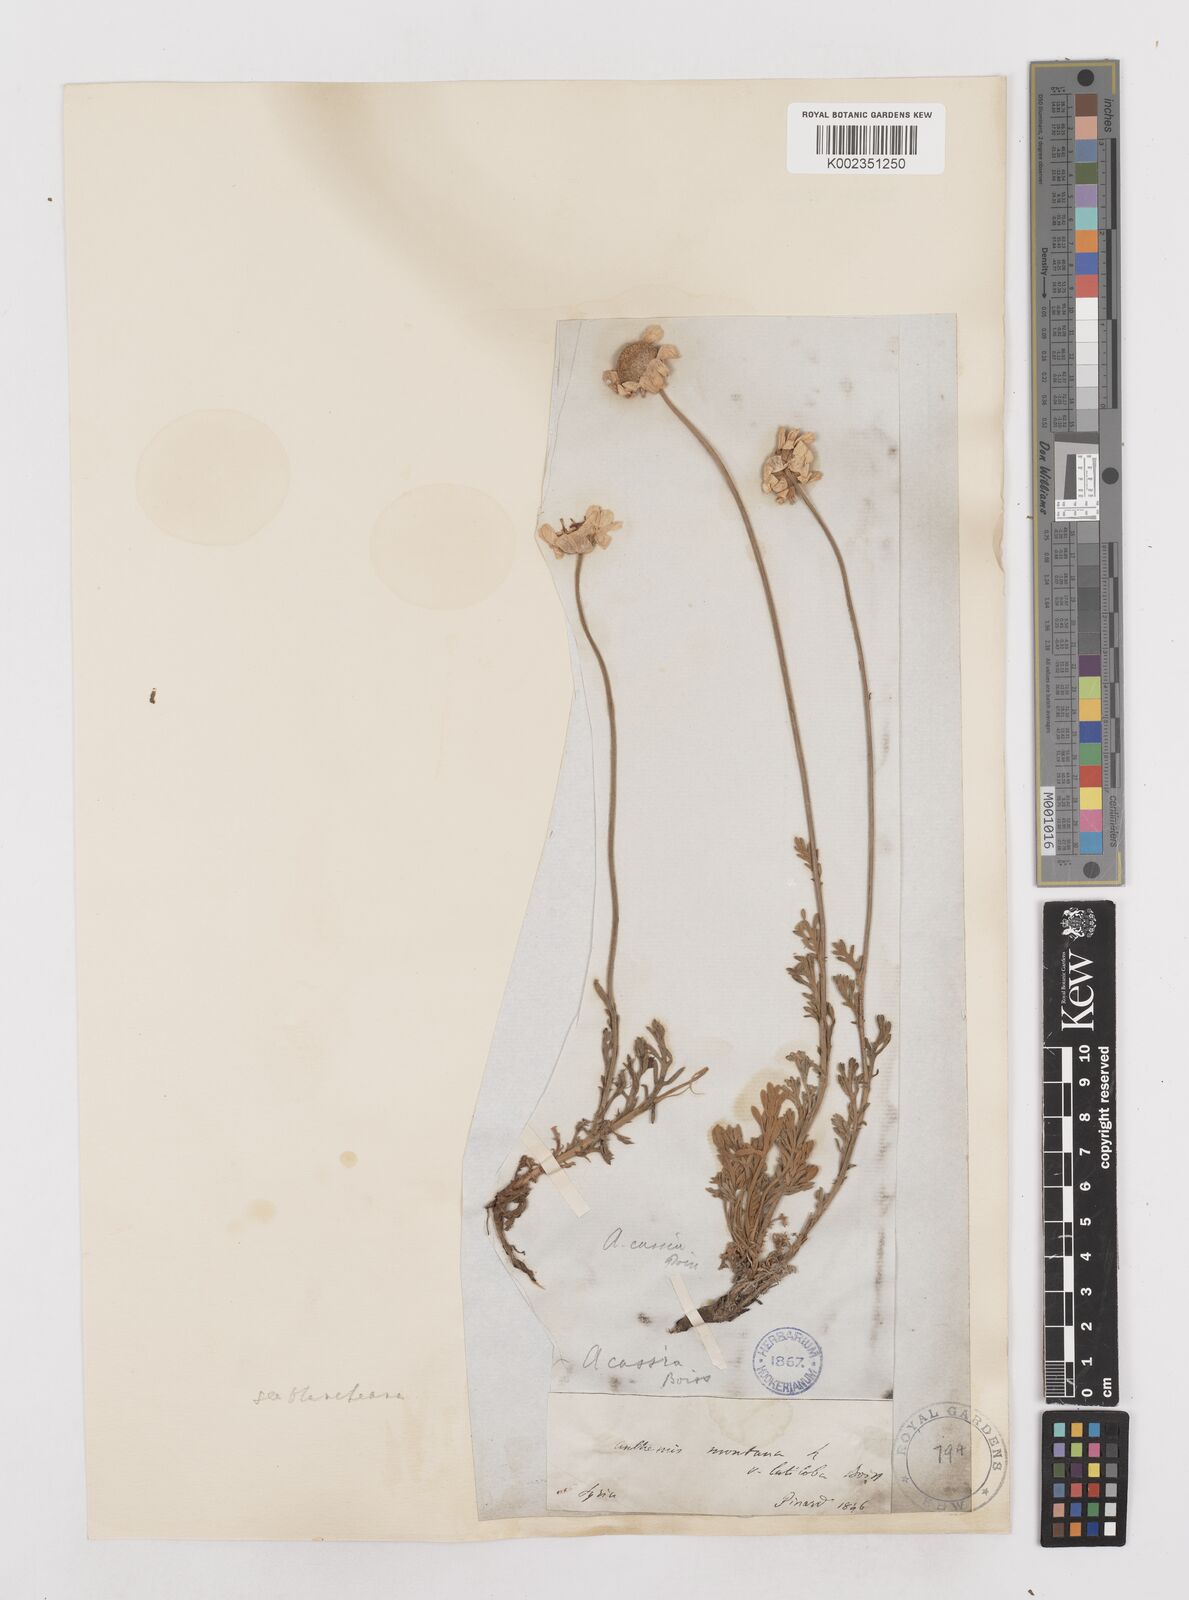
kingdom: Plantae
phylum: Tracheophyta
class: Magnoliopsida
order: Asterales
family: Asteraceae
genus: Anthemis
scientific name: Anthemis
